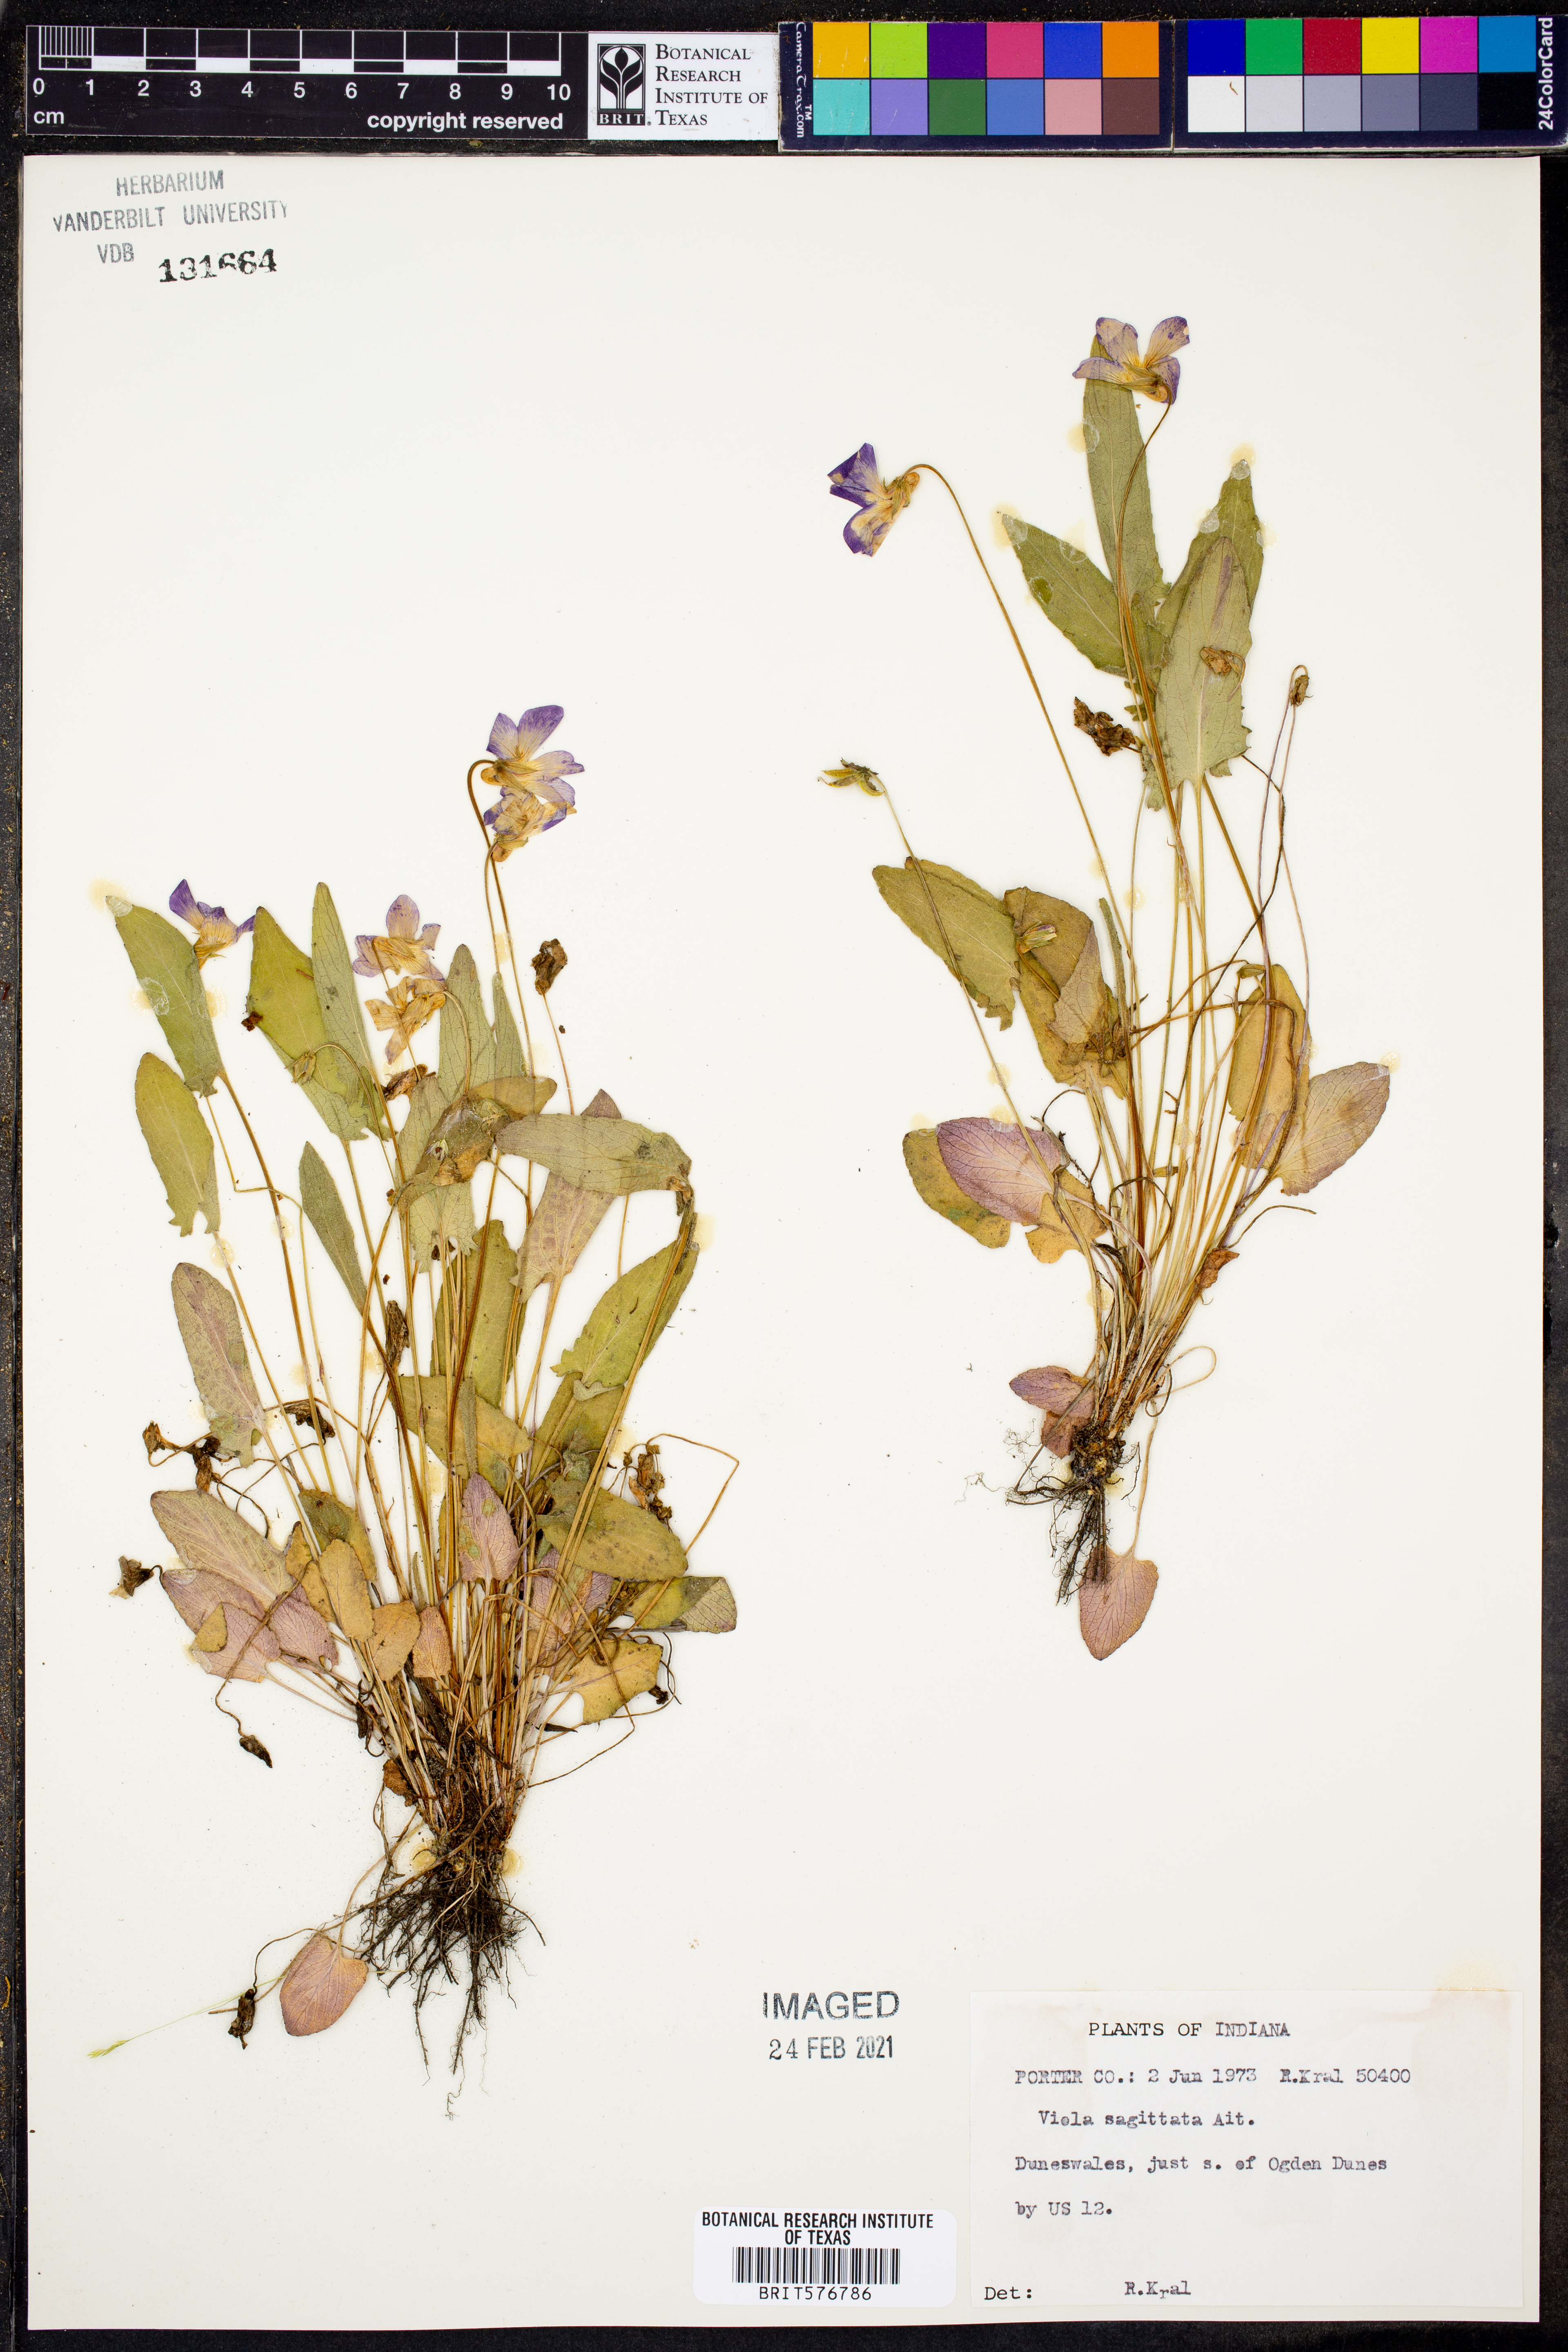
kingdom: Plantae
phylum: Tracheophyta
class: Magnoliopsida
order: Malpighiales
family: Violaceae
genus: Viola
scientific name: Viola sagittata
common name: Arrowhead violet
